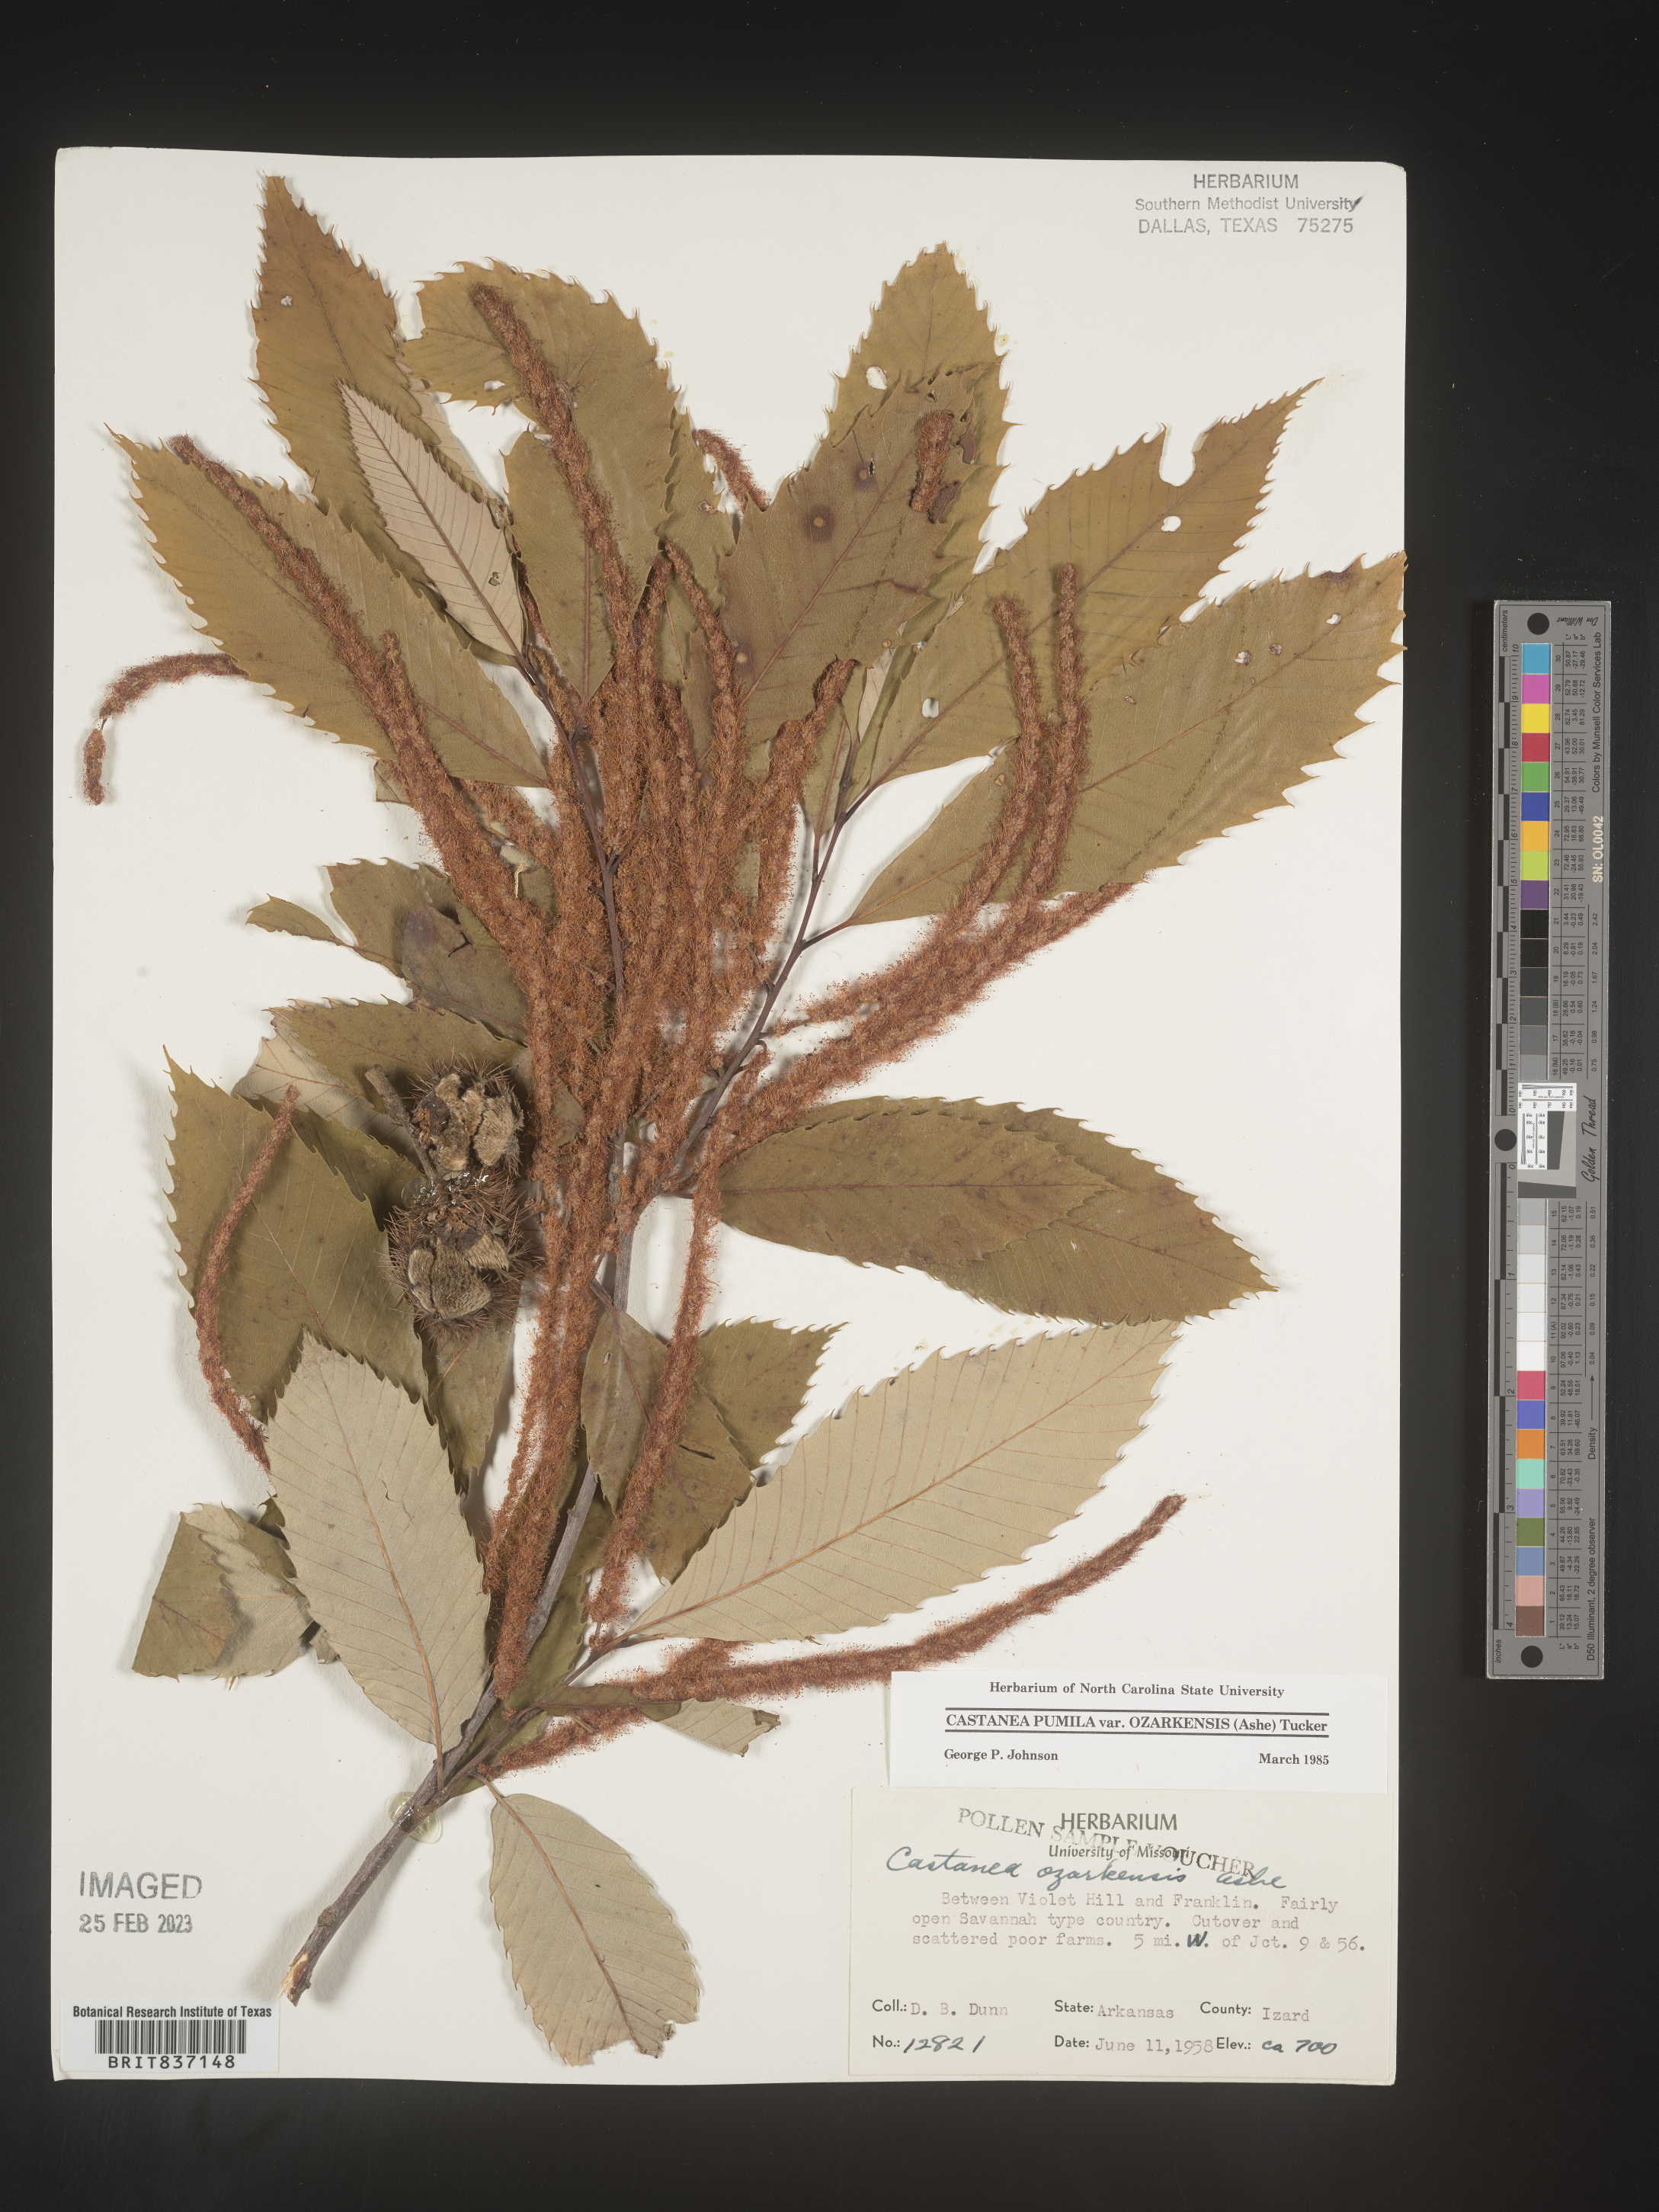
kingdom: Plantae
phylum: Tracheophyta
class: Magnoliopsida
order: Fagales
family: Fagaceae
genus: Castanea
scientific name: Castanea pumila
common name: Chinkapin
